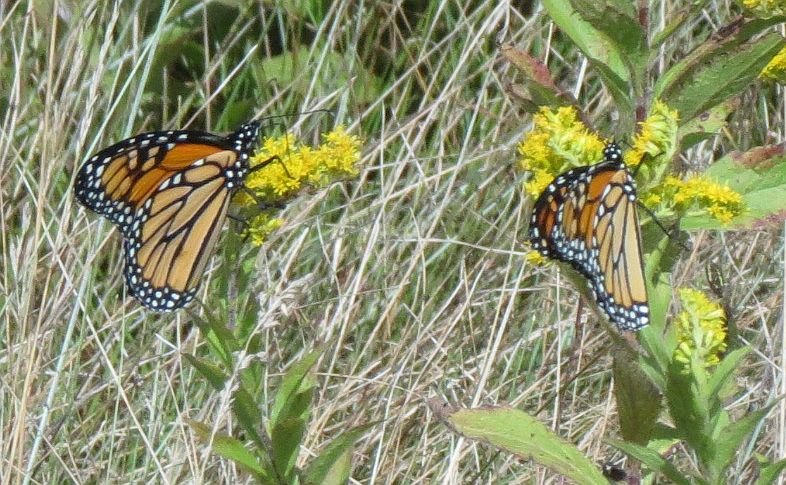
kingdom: Animalia
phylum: Arthropoda
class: Insecta
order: Lepidoptera
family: Nymphalidae
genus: Danaus
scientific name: Danaus plexippus
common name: Monarch
